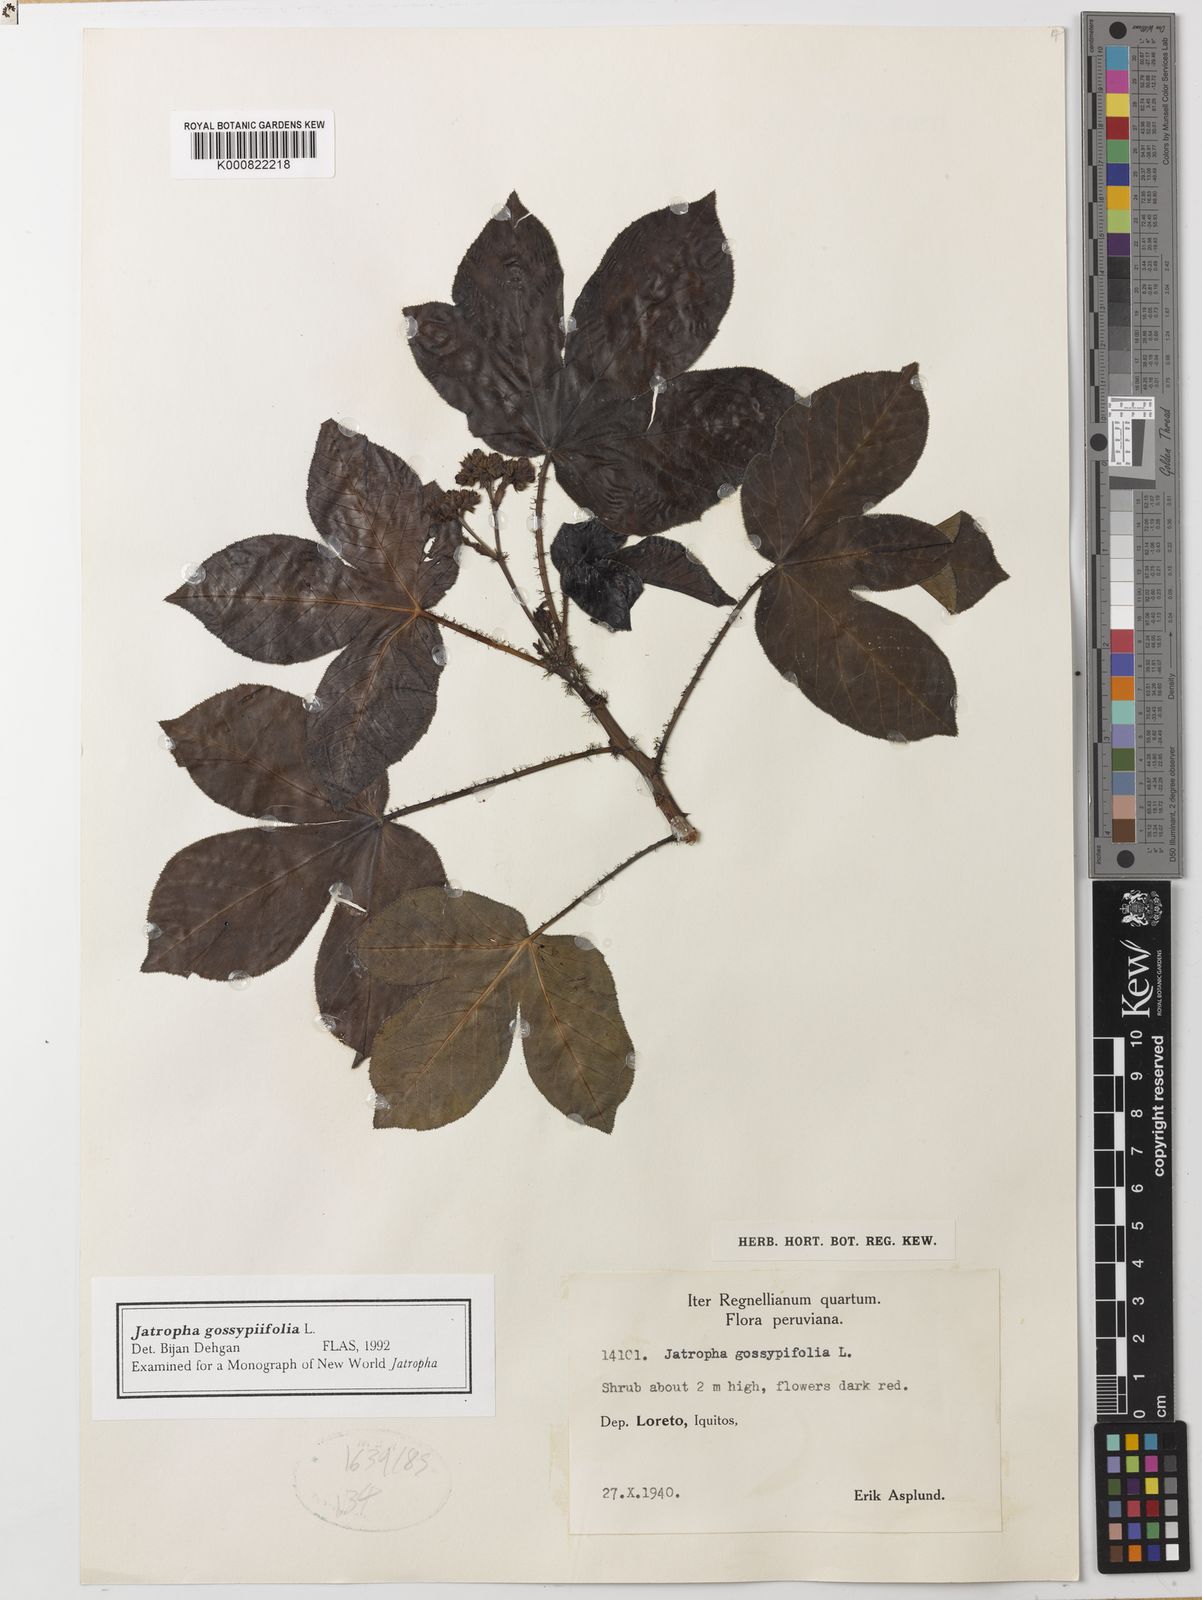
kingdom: Plantae
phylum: Tracheophyta
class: Magnoliopsida
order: Malpighiales
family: Euphorbiaceae
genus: Jatropha
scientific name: Jatropha gossypiifolia
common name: Bellyache bush
